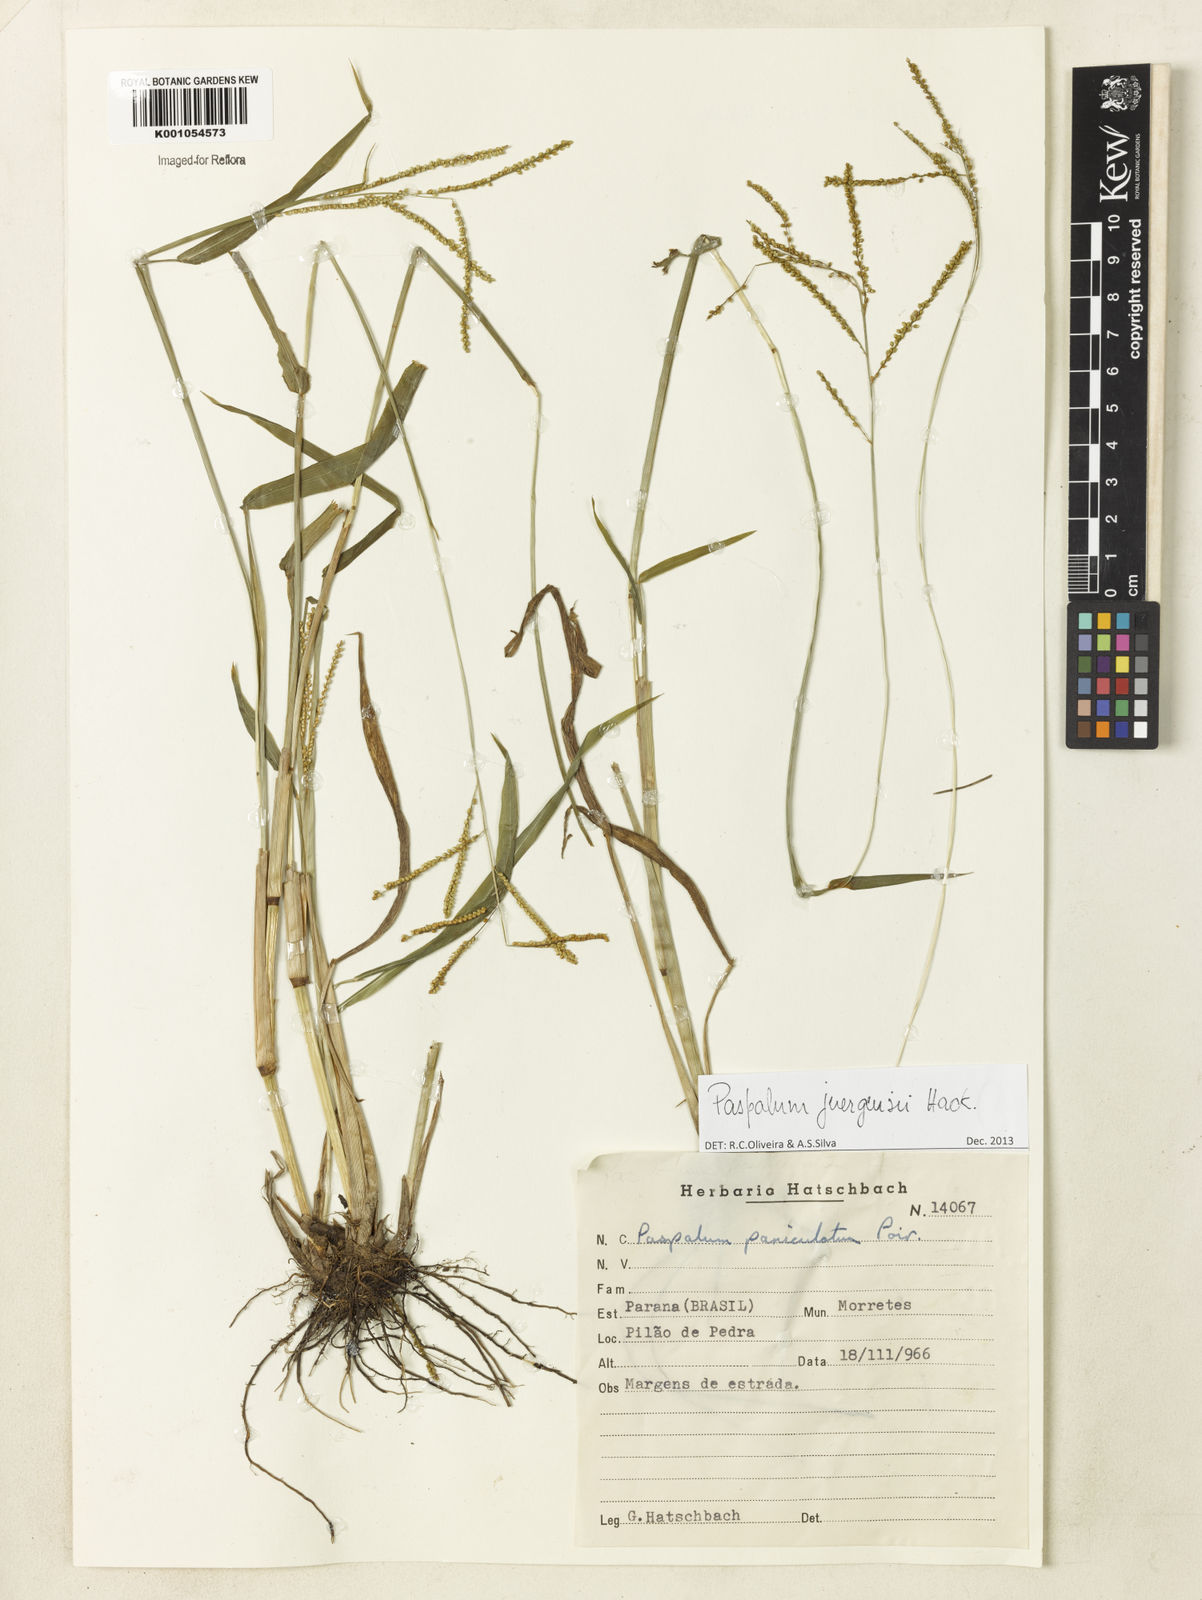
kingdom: Plantae
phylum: Tracheophyta
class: Liliopsida
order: Poales
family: Poaceae
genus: Paspalum
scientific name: Paspalum juergensii
